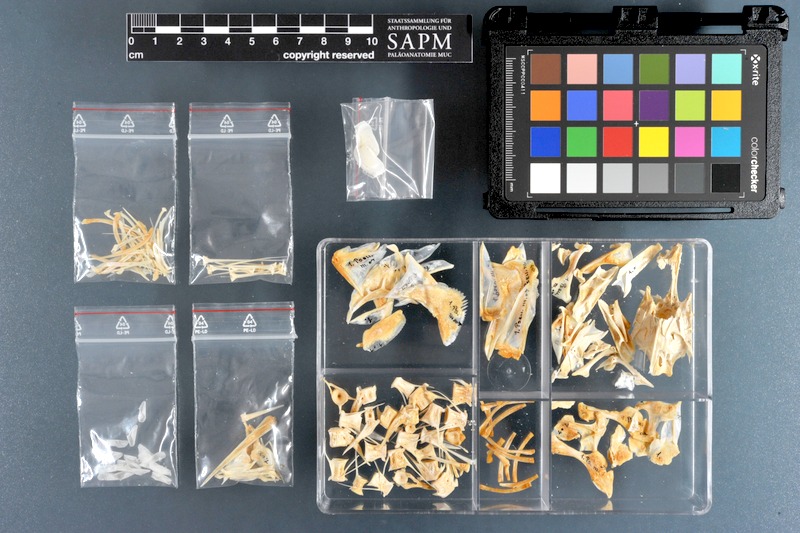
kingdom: Animalia
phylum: Chordata
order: Perciformes
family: Sciaenidae
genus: Pseudotolithus
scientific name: Pseudotolithus senegalensis
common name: Cassava croaker
